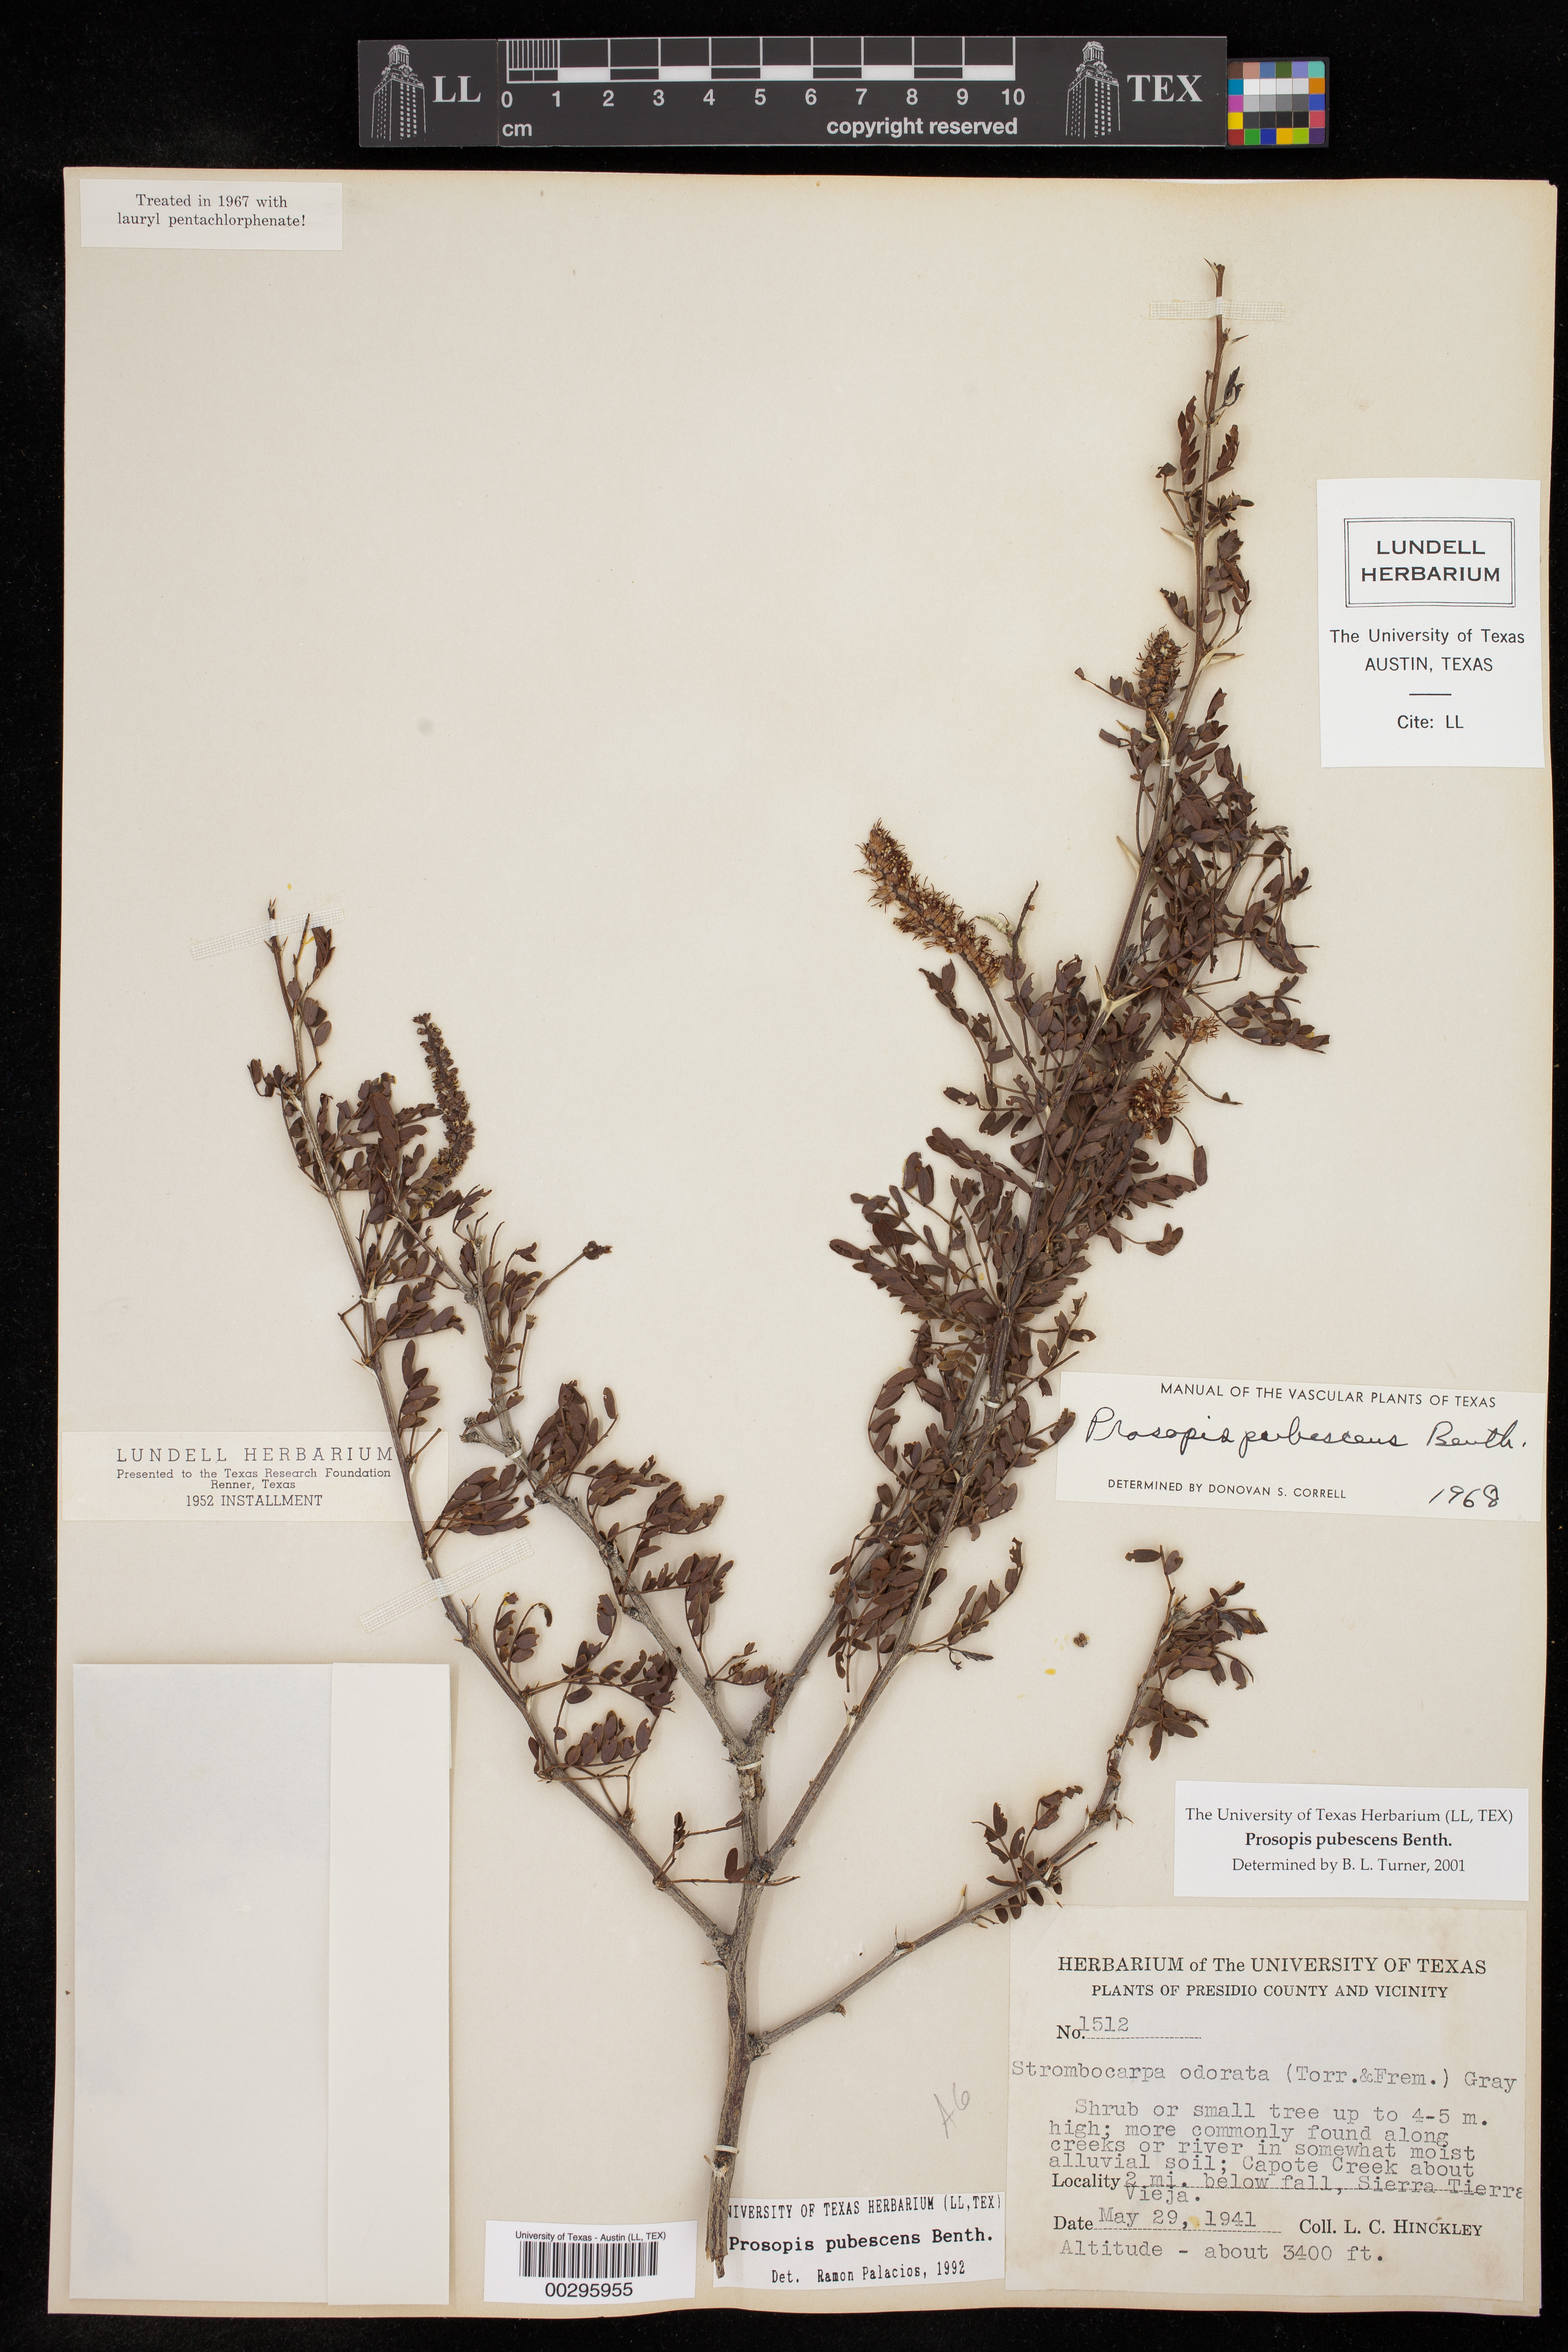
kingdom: Plantae
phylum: Tracheophyta
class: Magnoliopsida
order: Fabales
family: Fabaceae
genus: Prosopis
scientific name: Prosopis pubescens
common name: Screw-bean
